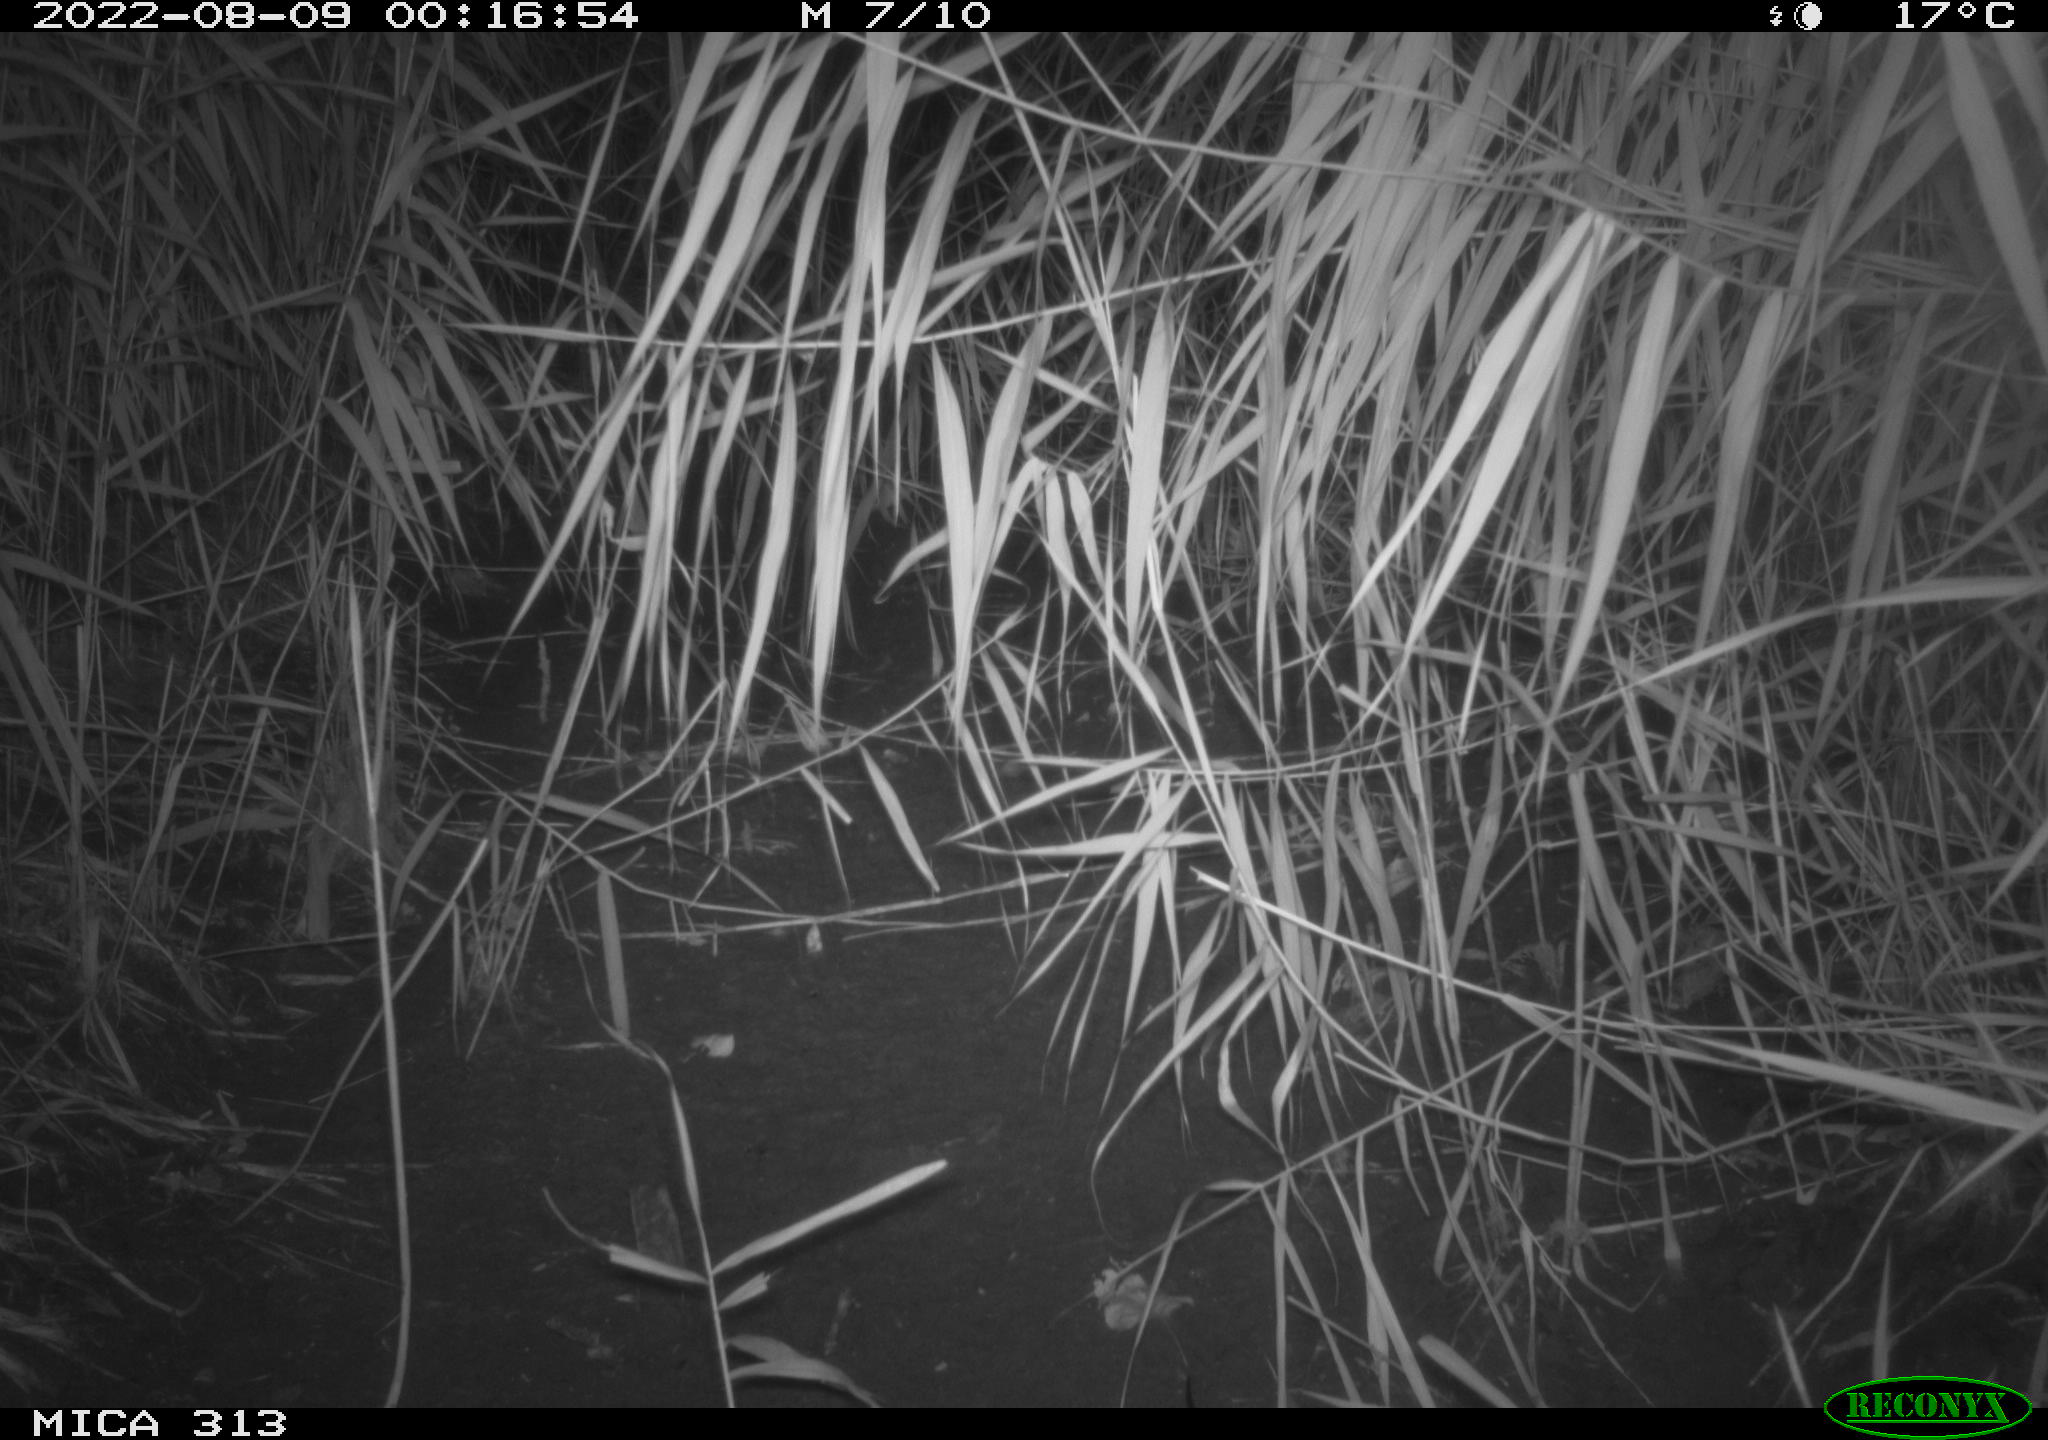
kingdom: Animalia
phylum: Chordata
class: Mammalia
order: Rodentia
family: Muridae
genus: Rattus
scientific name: Rattus norvegicus
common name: Brown rat
